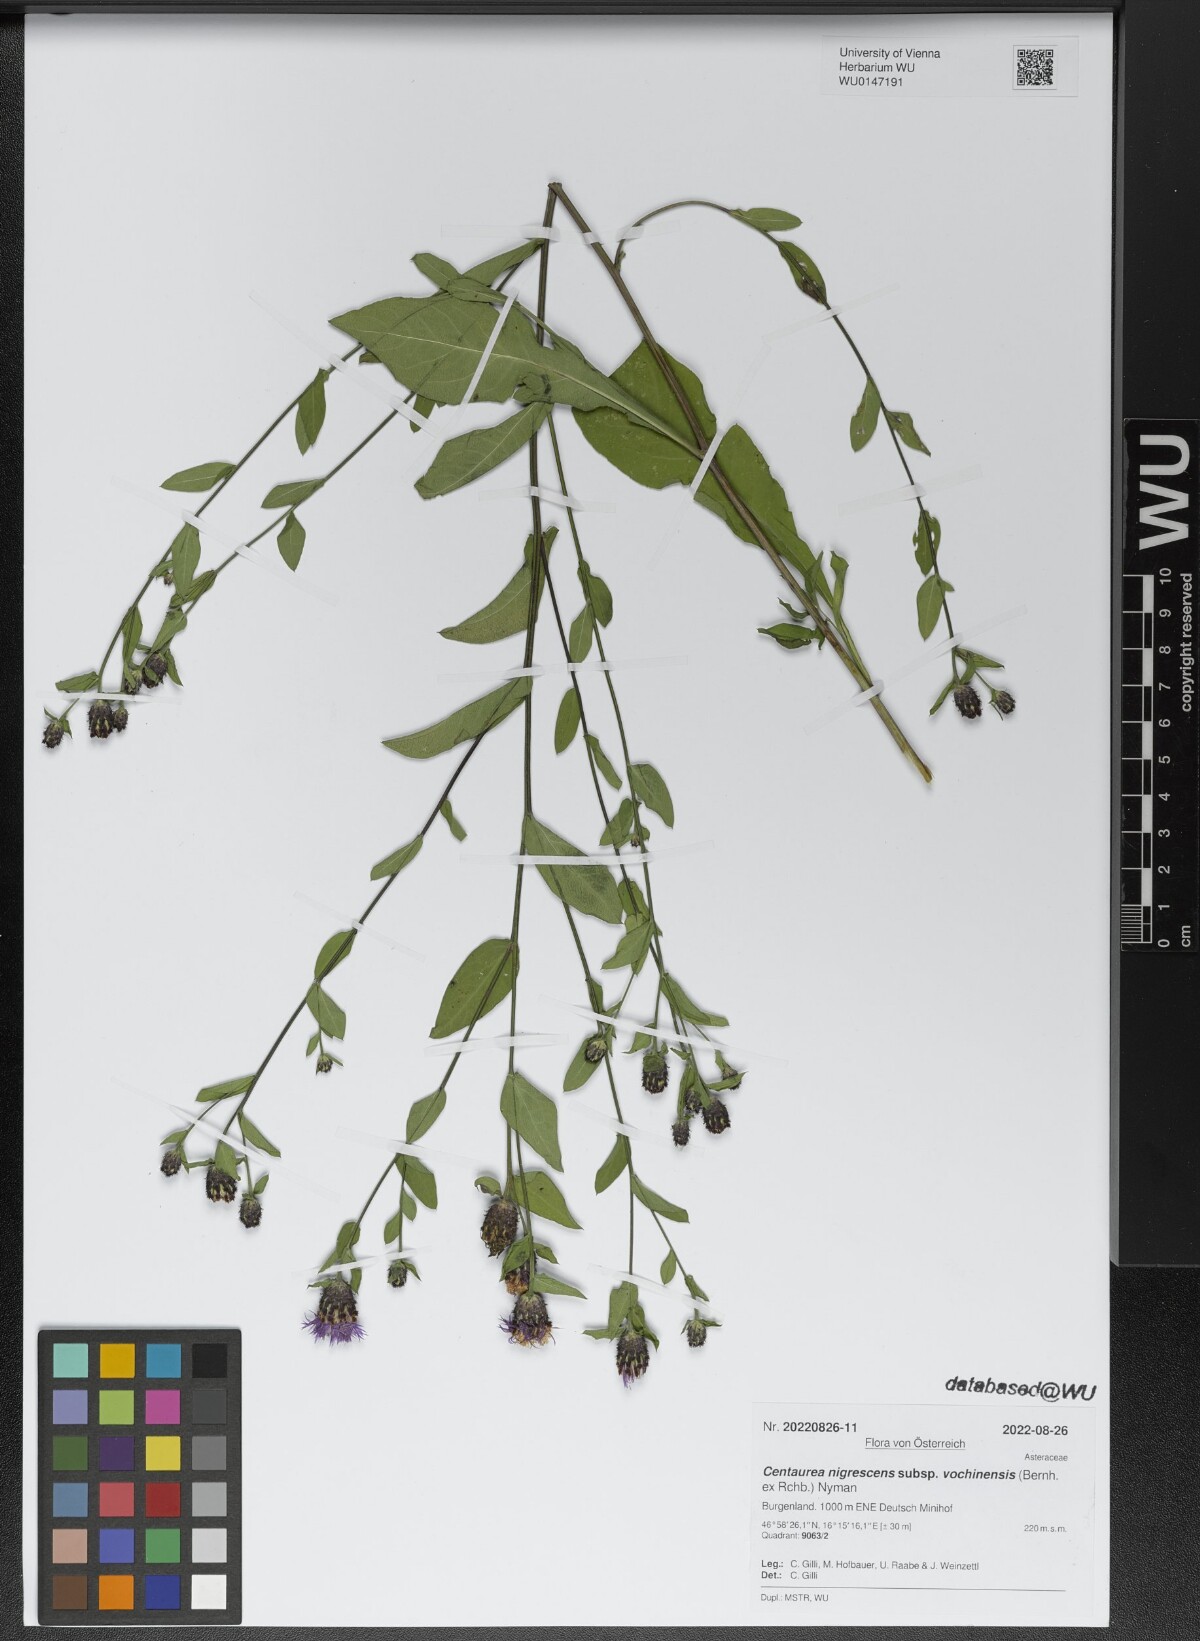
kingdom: Plantae
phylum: Tracheophyta
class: Magnoliopsida
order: Asterales
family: Asteraceae
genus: Centaurea
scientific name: Centaurea carniolica
